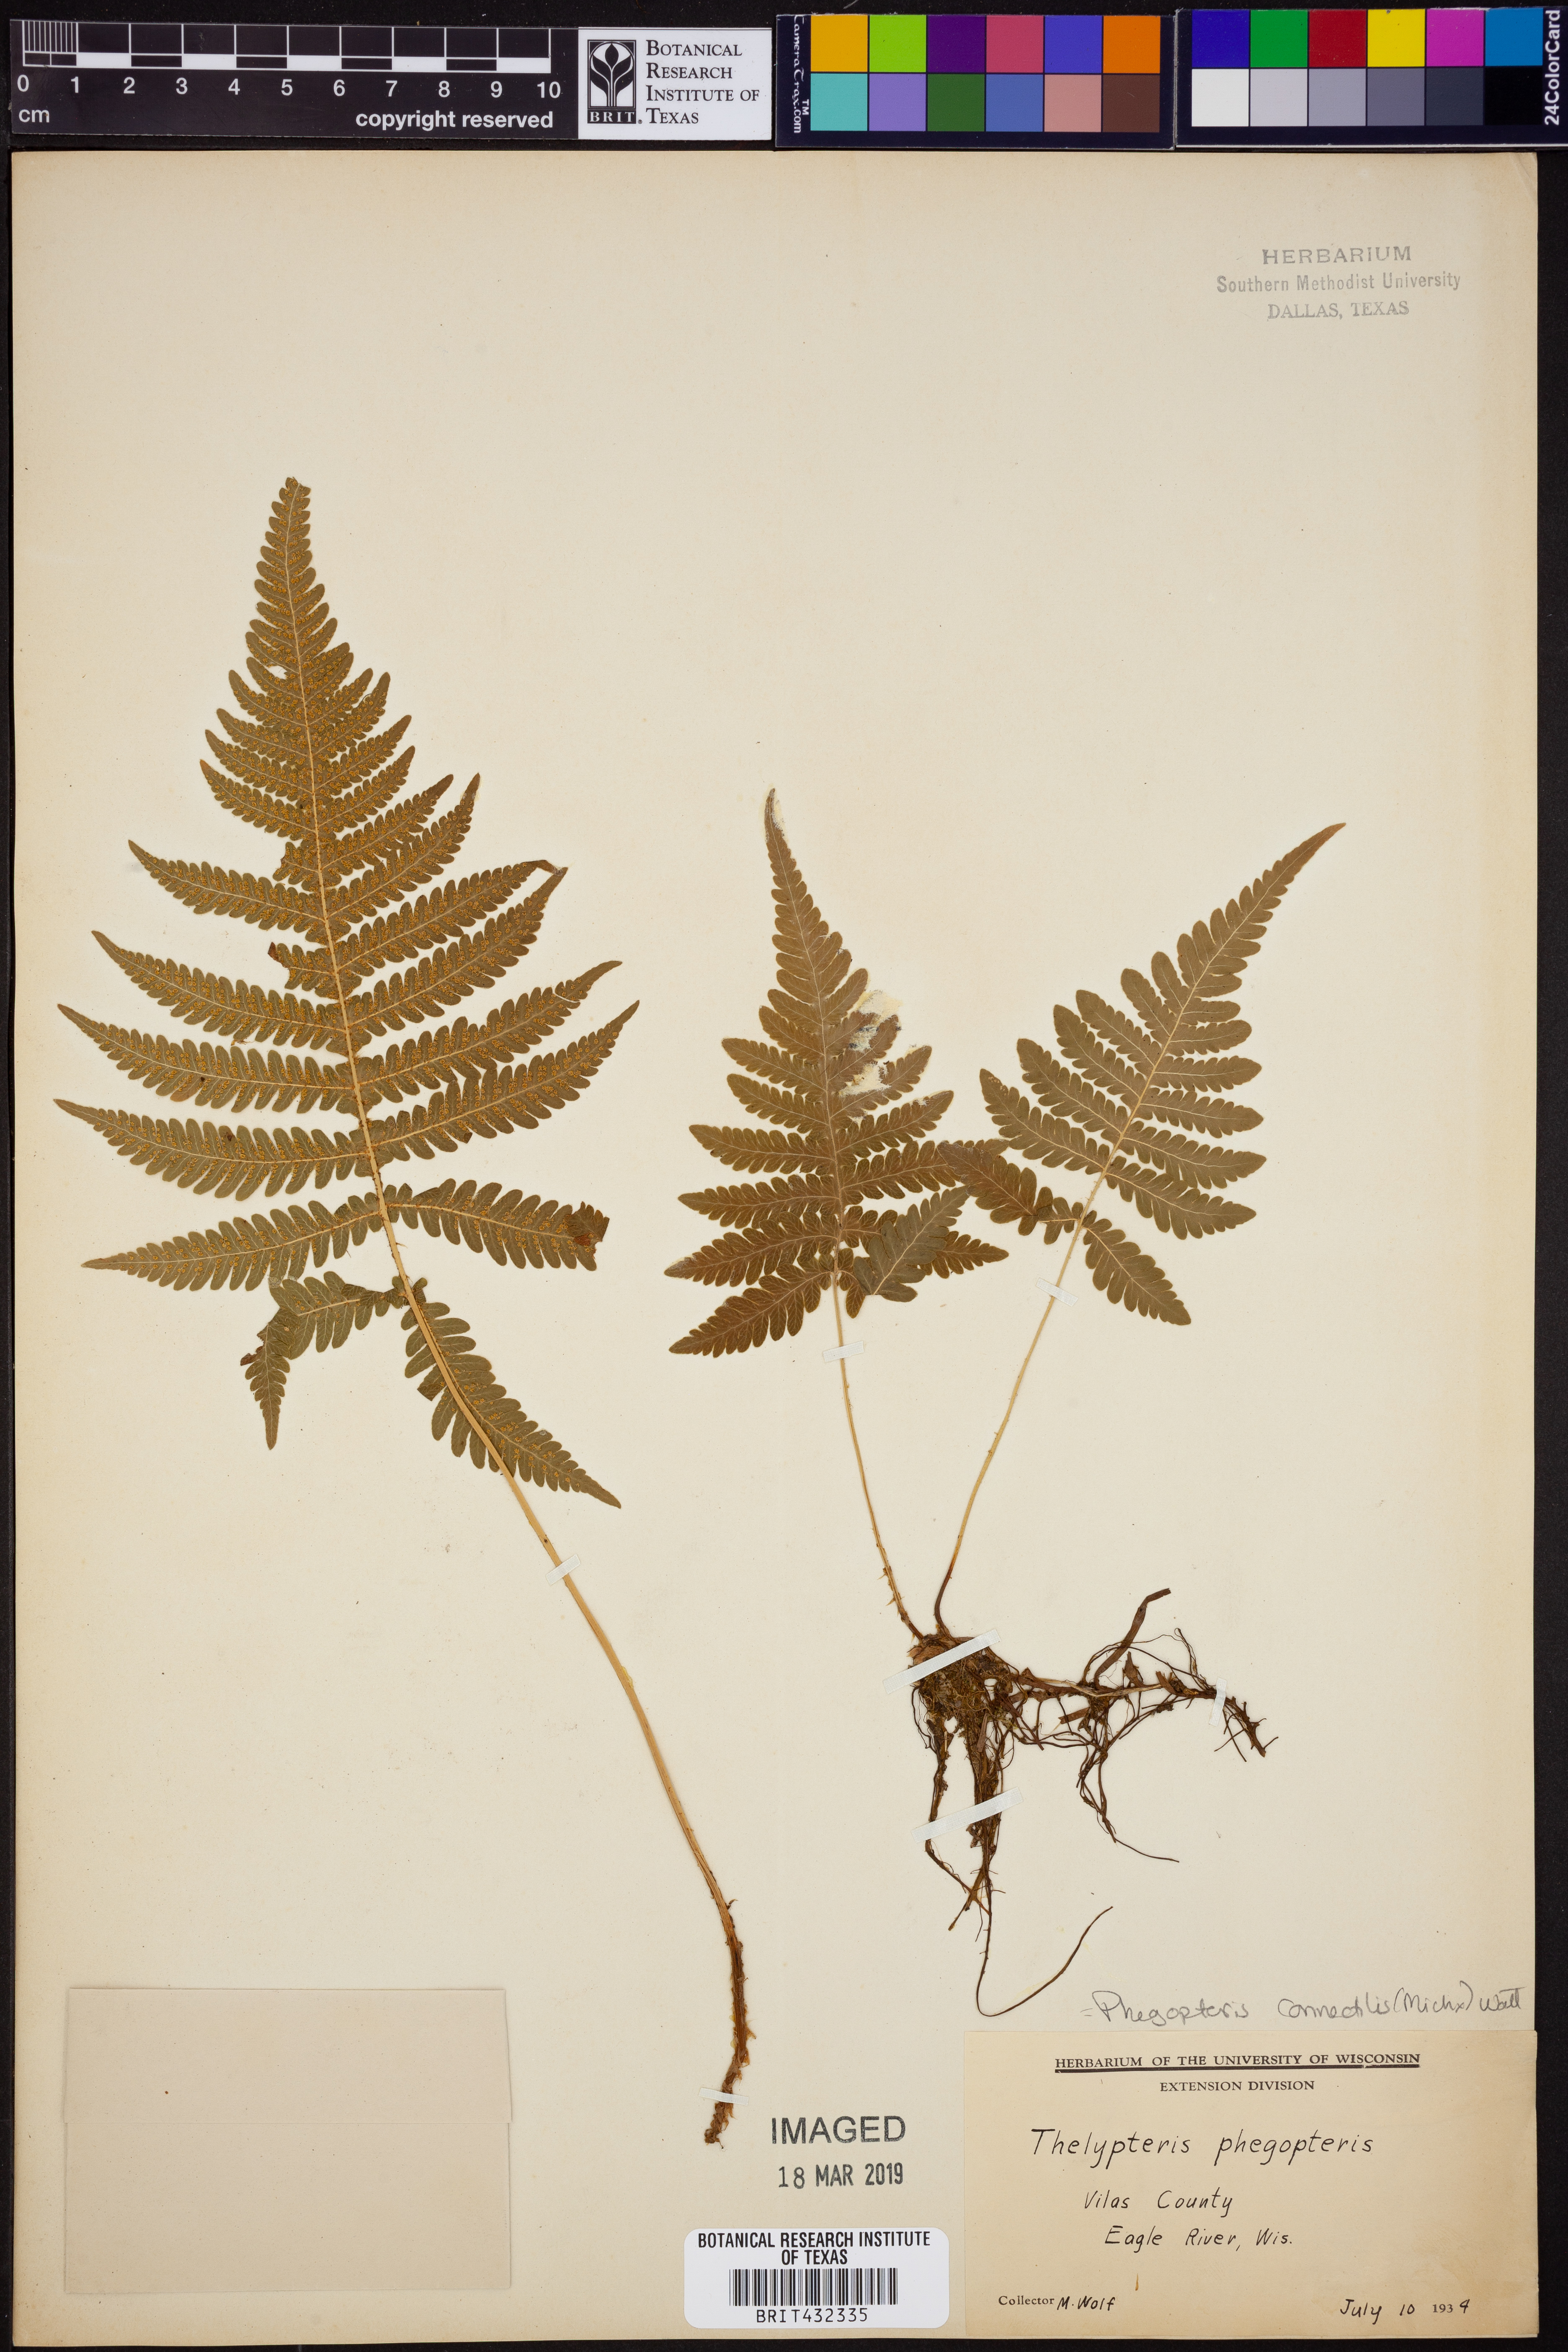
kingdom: Plantae
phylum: Tracheophyta
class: Polypodiopsida
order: Polypodiales
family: Thelypteridaceae
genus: Phegopteris
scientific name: Phegopteris connectilis
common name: Beech fern
